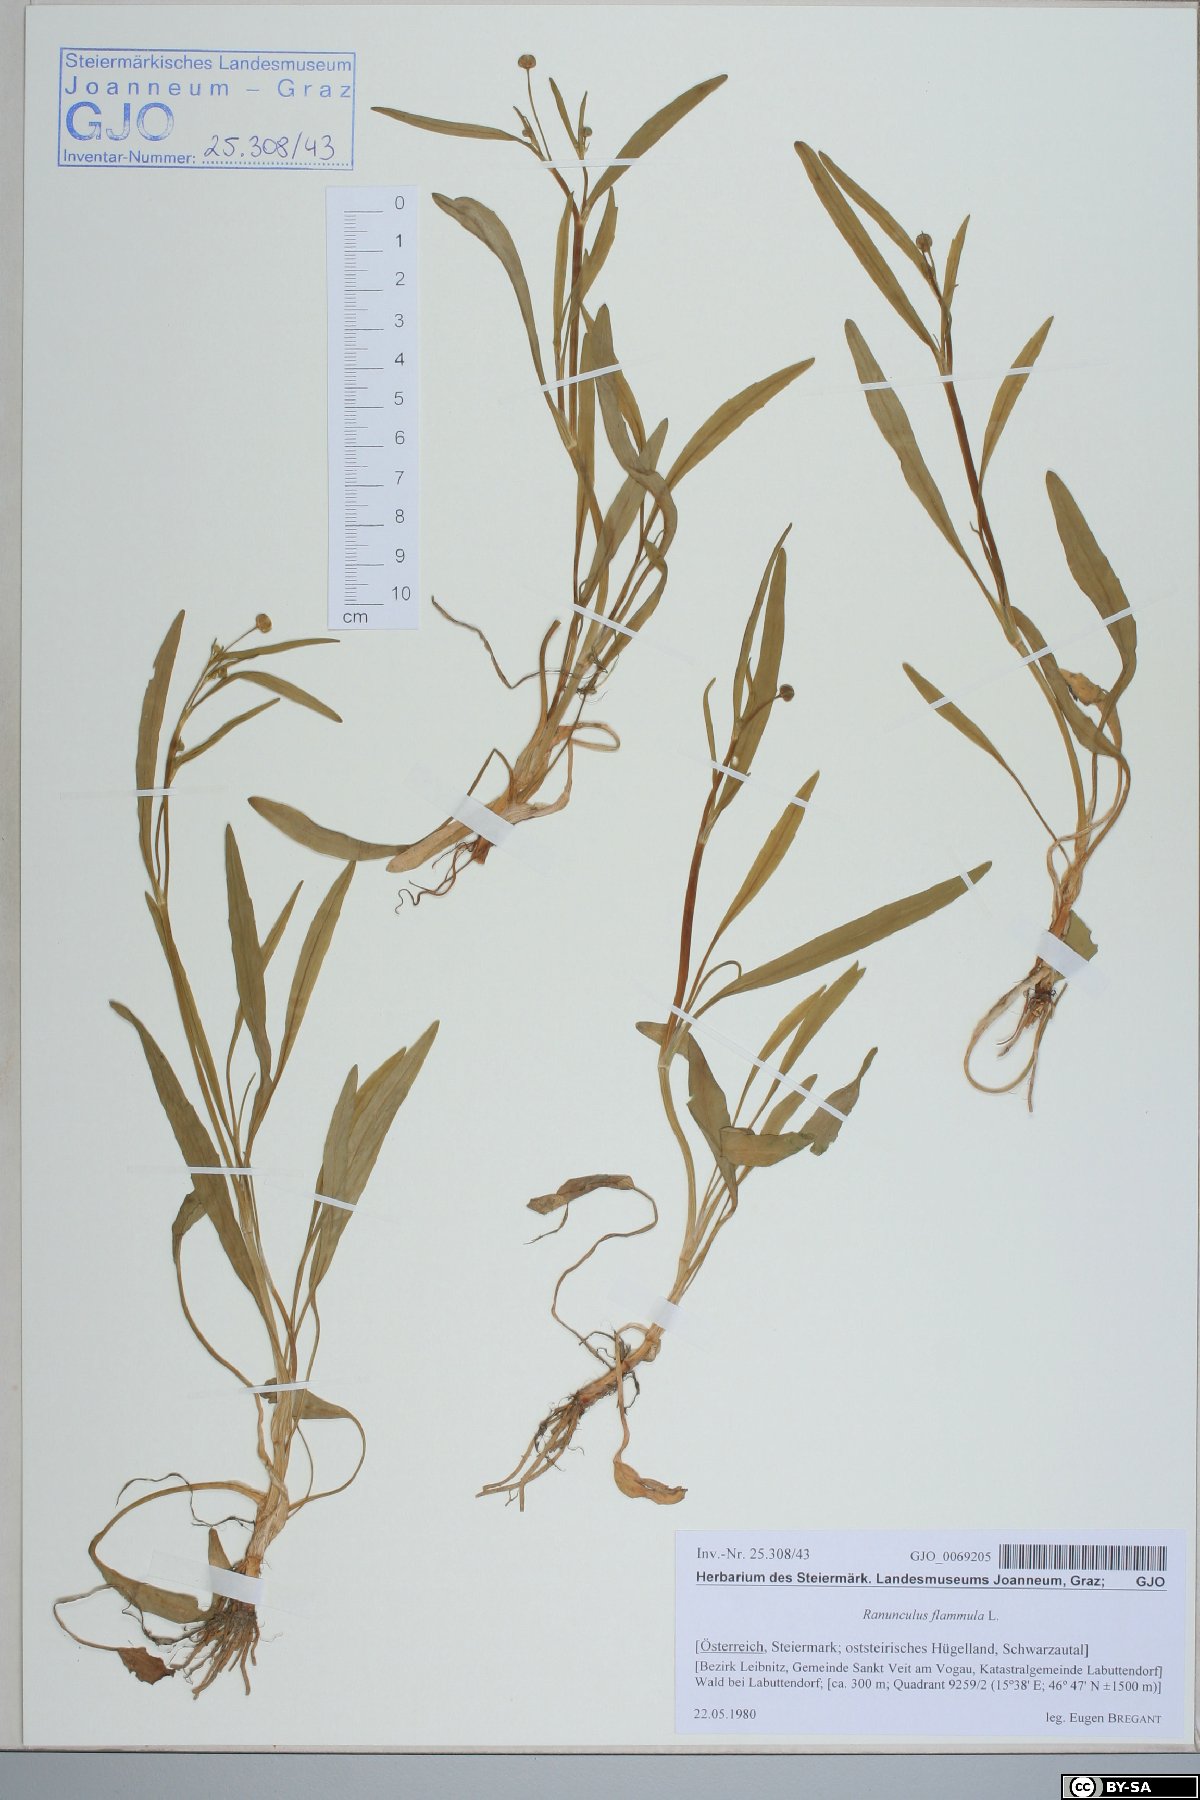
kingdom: Plantae
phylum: Tracheophyta
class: Magnoliopsida
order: Ranunculales
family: Ranunculaceae
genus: Ranunculus
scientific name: Ranunculus flammula
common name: Lesser spearwort
